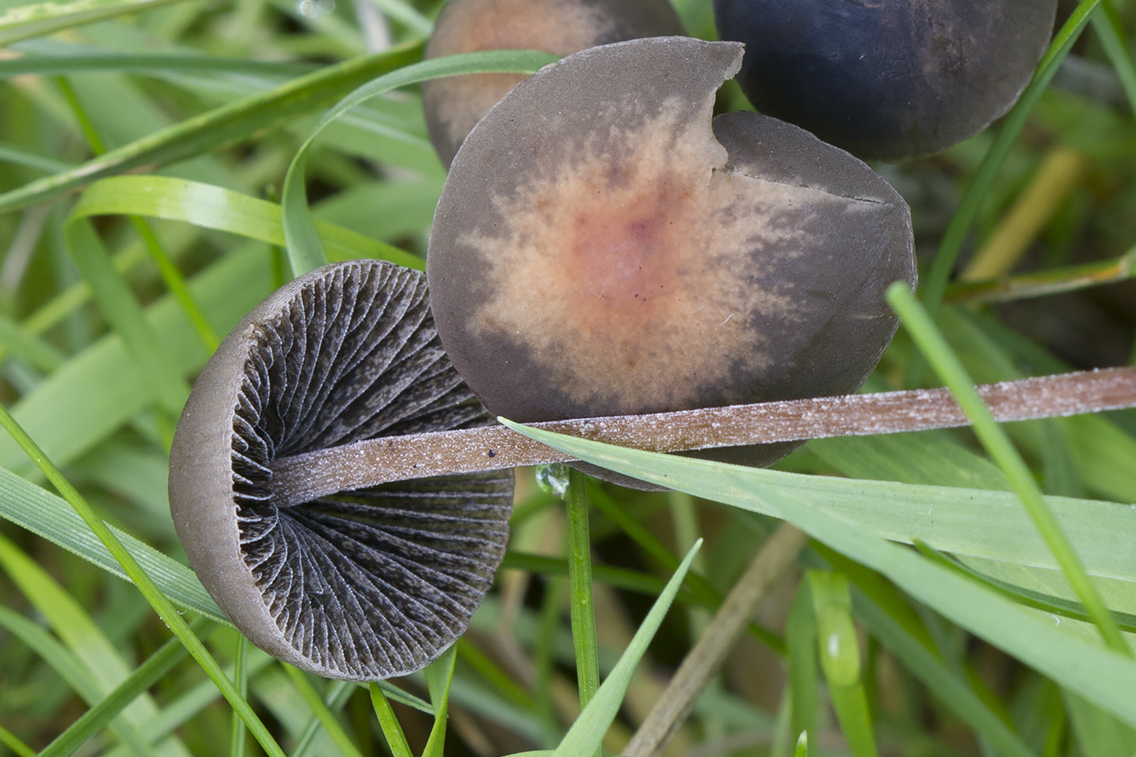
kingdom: Fungi
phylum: Basidiomycota
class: Agaricomycetes
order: Agaricales
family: Bolbitiaceae
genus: Panaeolus
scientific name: Panaeolus acuminatus
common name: høj glanshat
